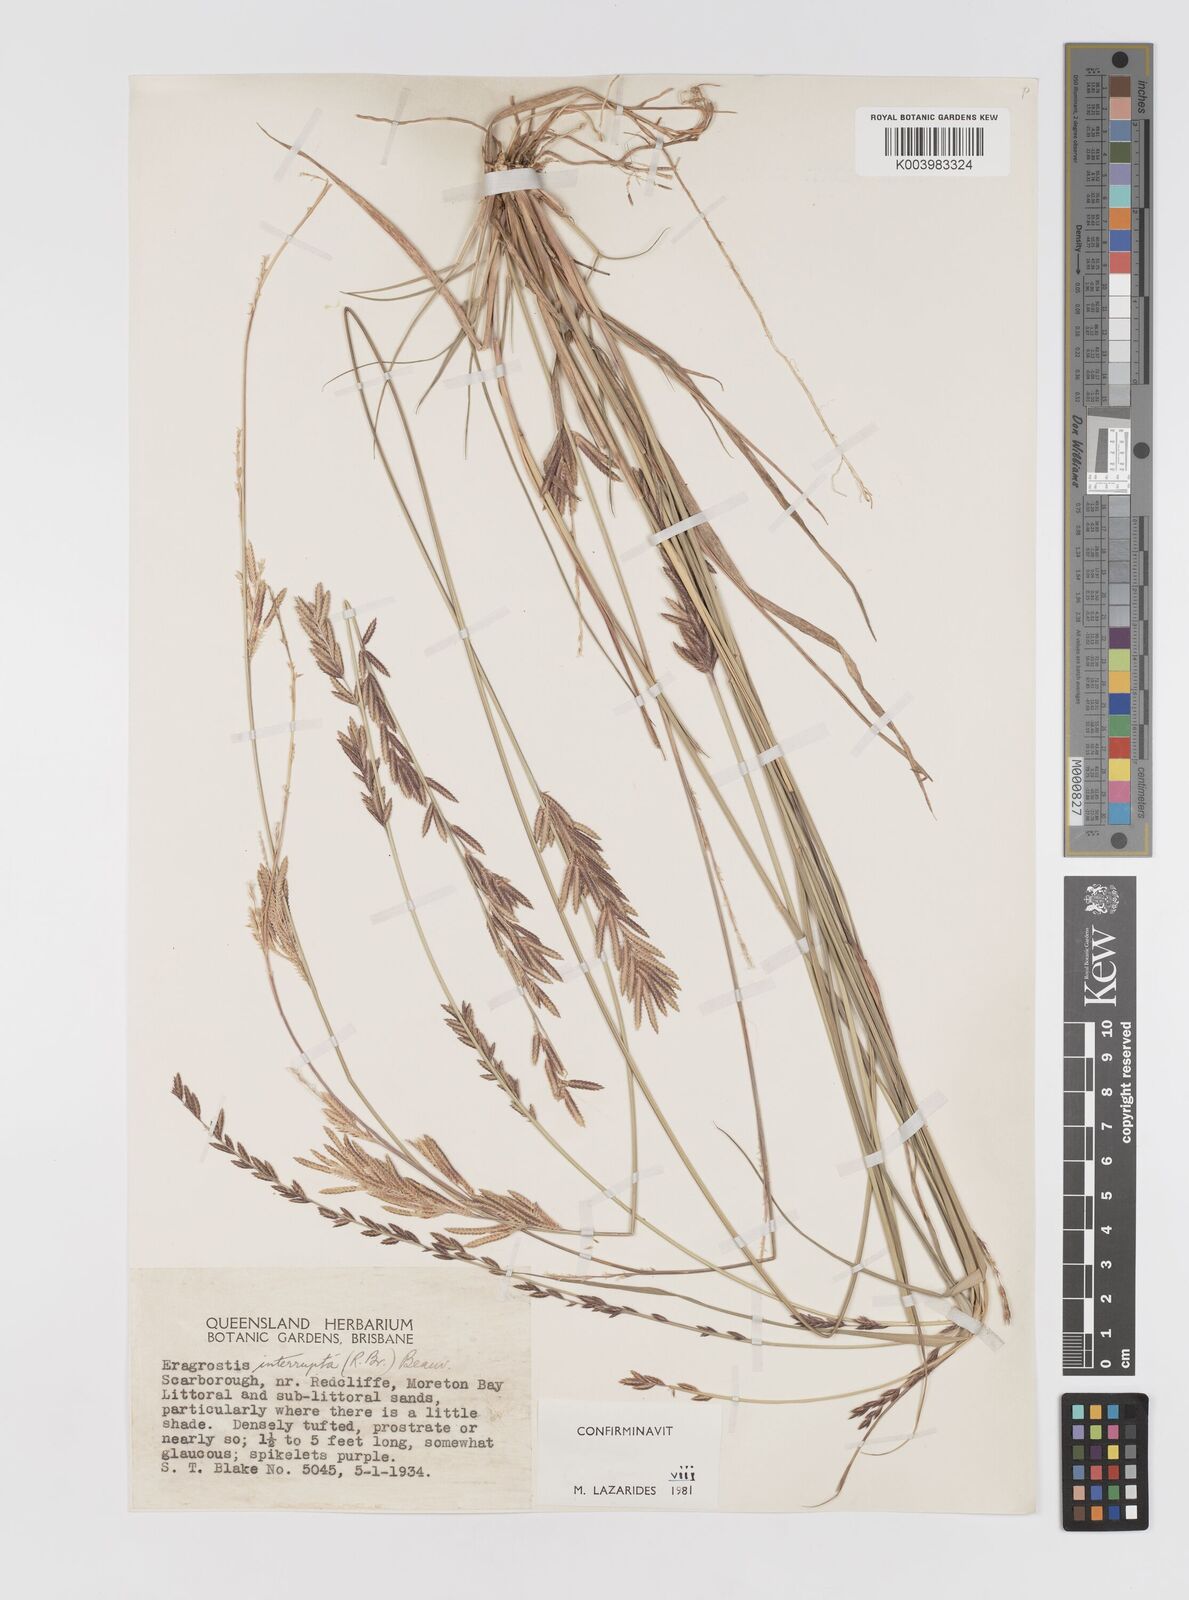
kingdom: Plantae
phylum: Tracheophyta
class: Liliopsida
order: Poales
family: Poaceae
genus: Eragrostis
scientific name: Eragrostis interrupta
